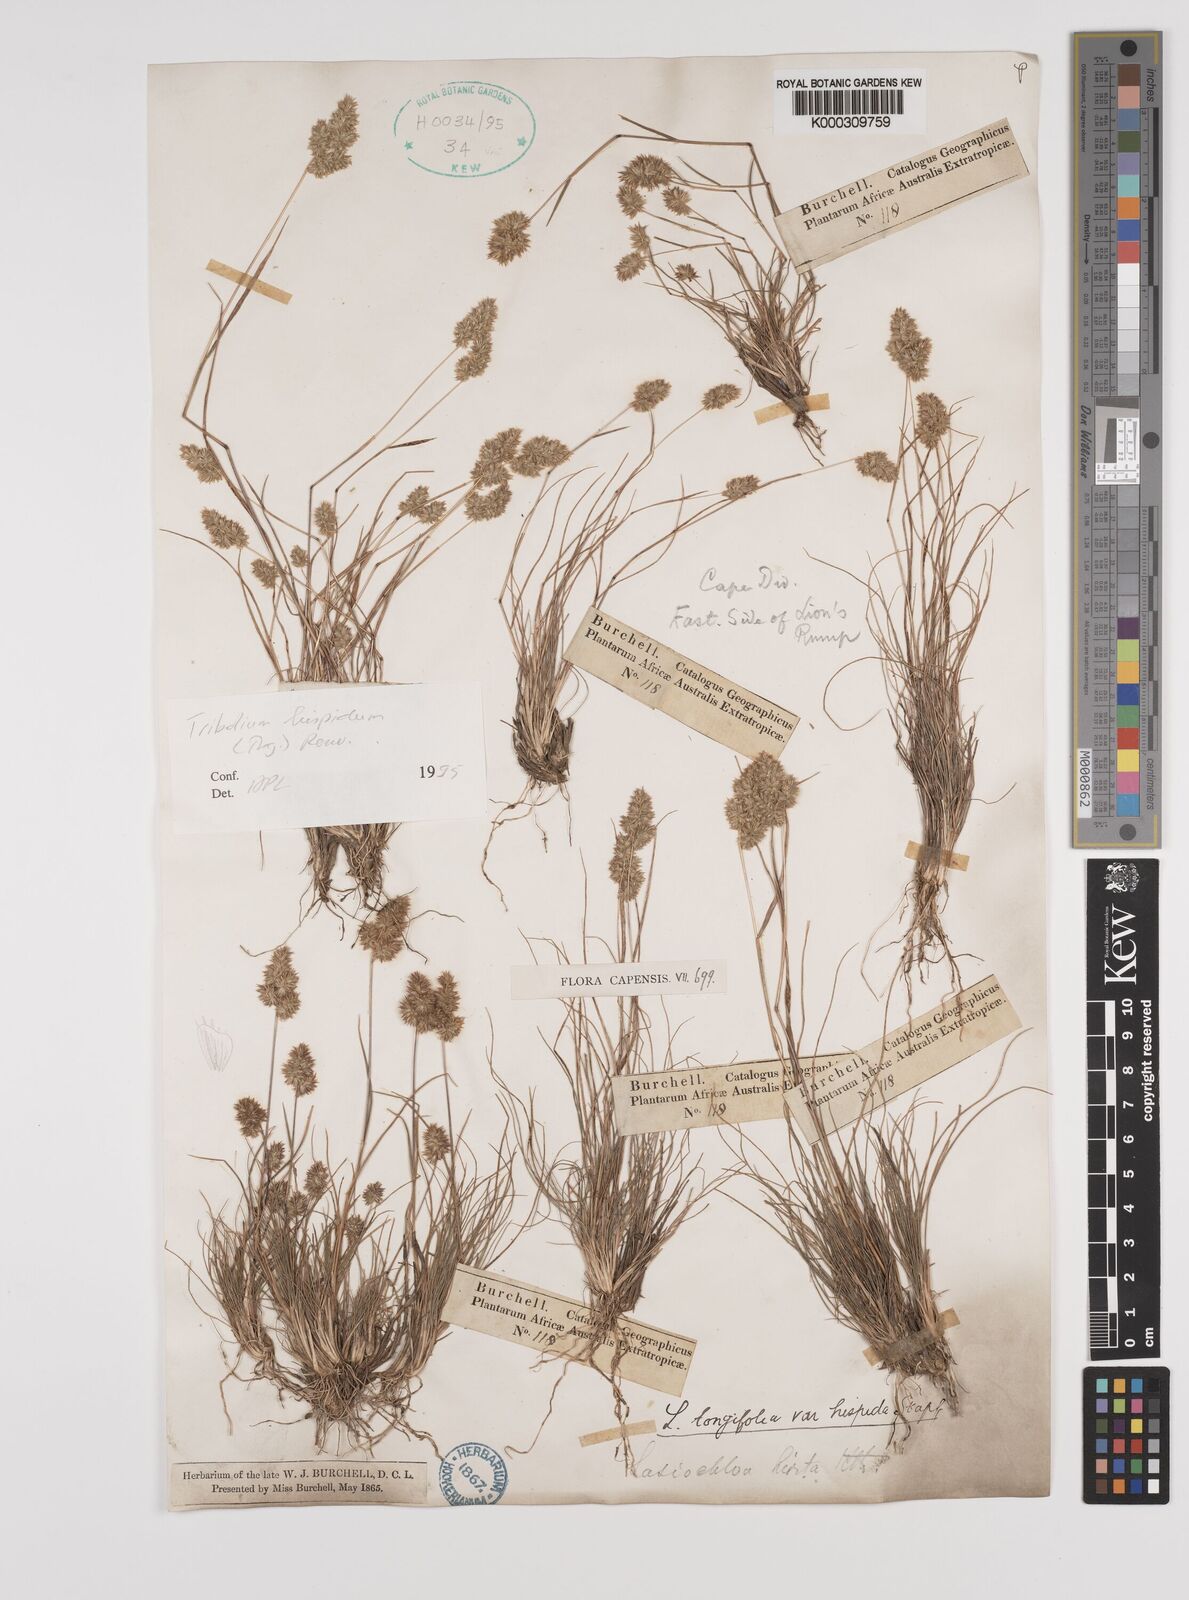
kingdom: Plantae
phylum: Tracheophyta
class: Liliopsida
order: Poales
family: Poaceae
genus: Tribolium
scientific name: Tribolium hispidum
